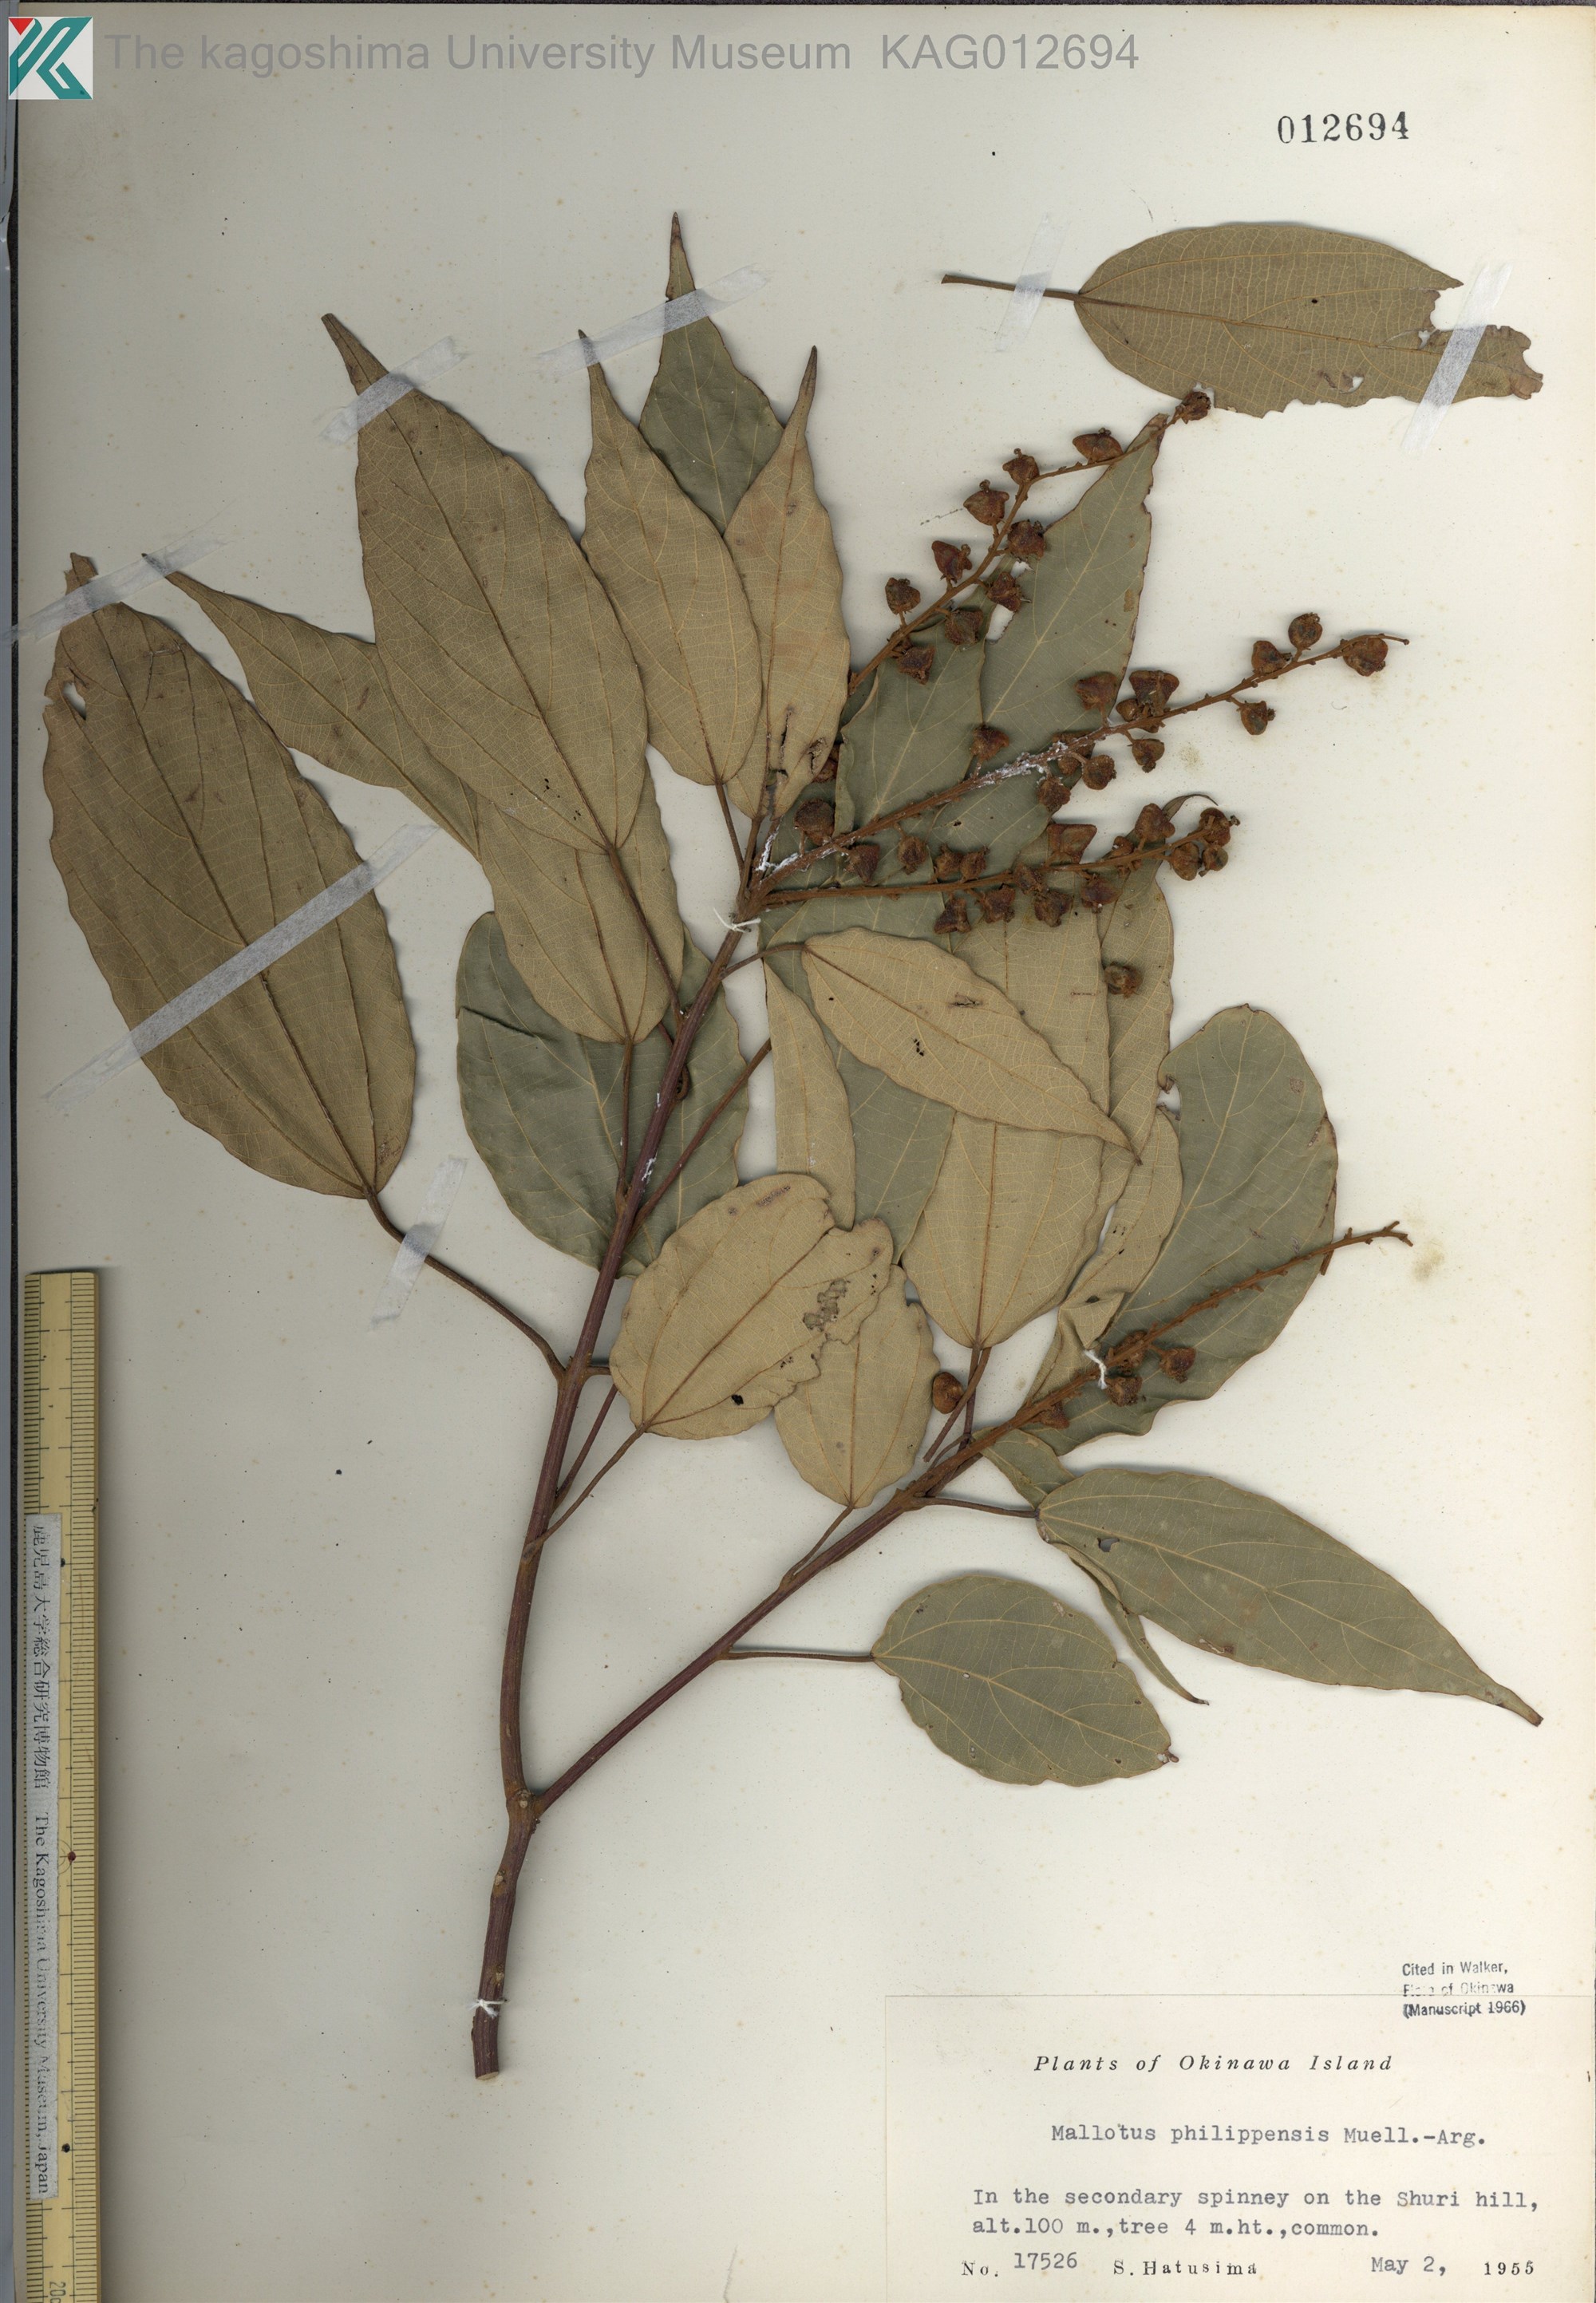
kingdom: Plantae
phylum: Tracheophyta
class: Magnoliopsida
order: Malpighiales
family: Euphorbiaceae
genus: Mallotus
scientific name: Mallotus philippensis
